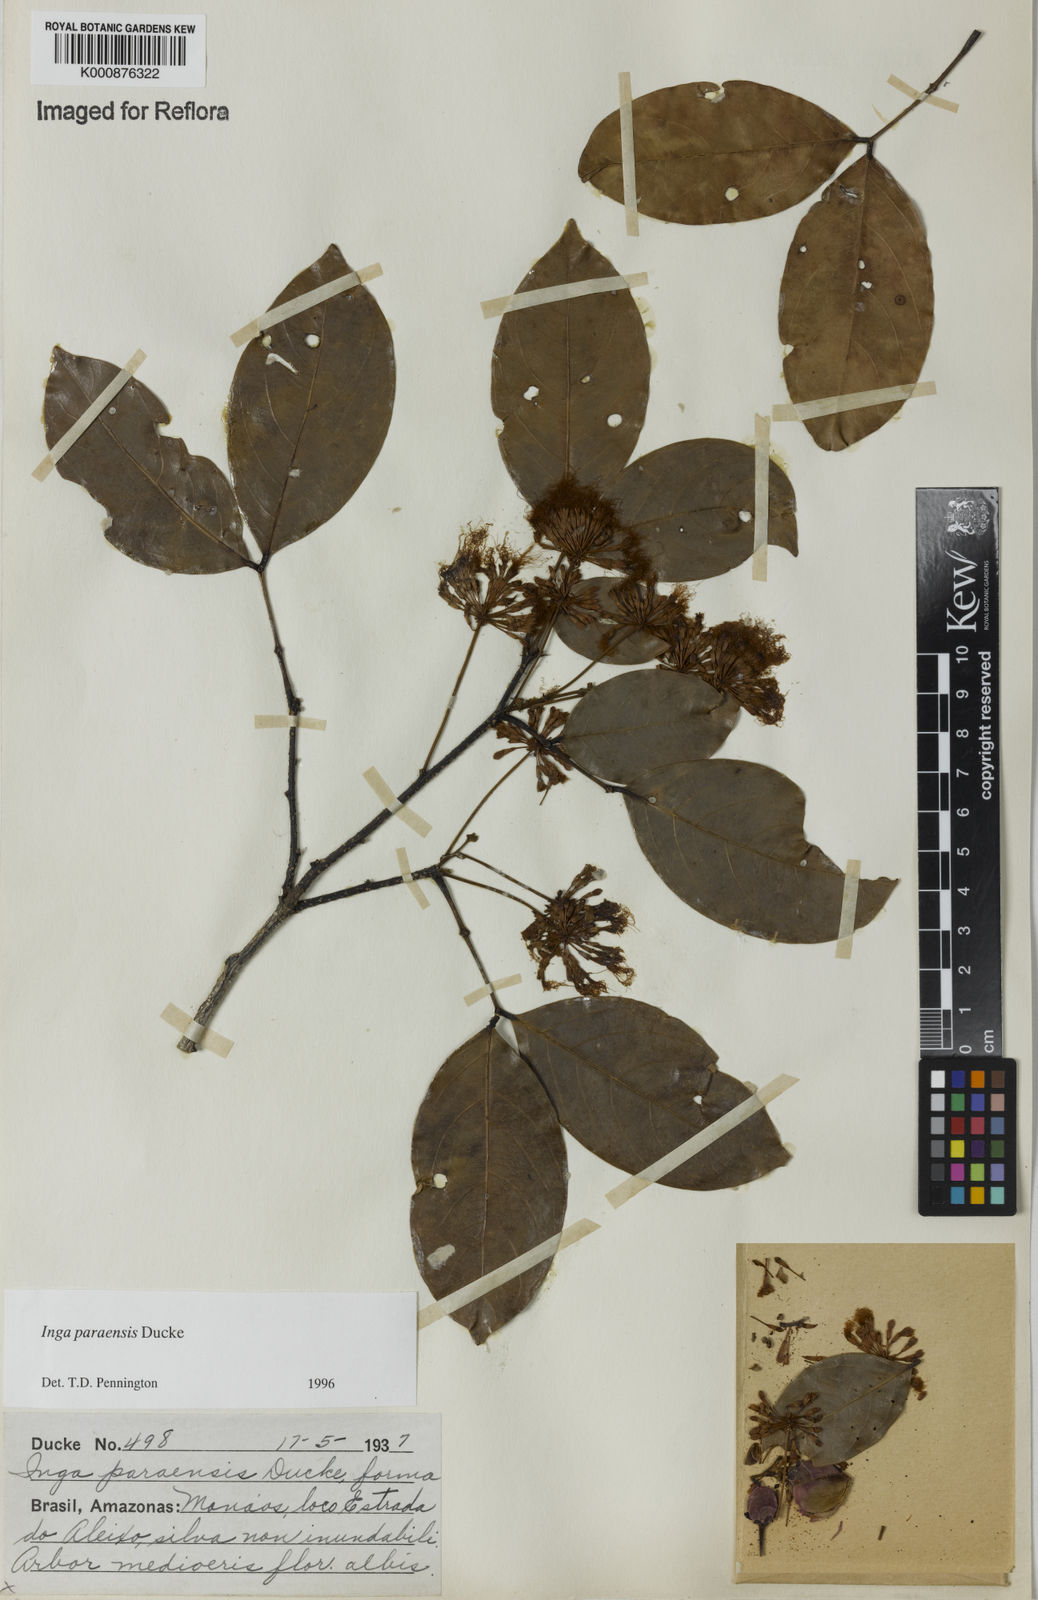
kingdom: Plantae
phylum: Tracheophyta
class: Magnoliopsida
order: Fabales
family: Fabaceae
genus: Inga
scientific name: Inga paraensis
